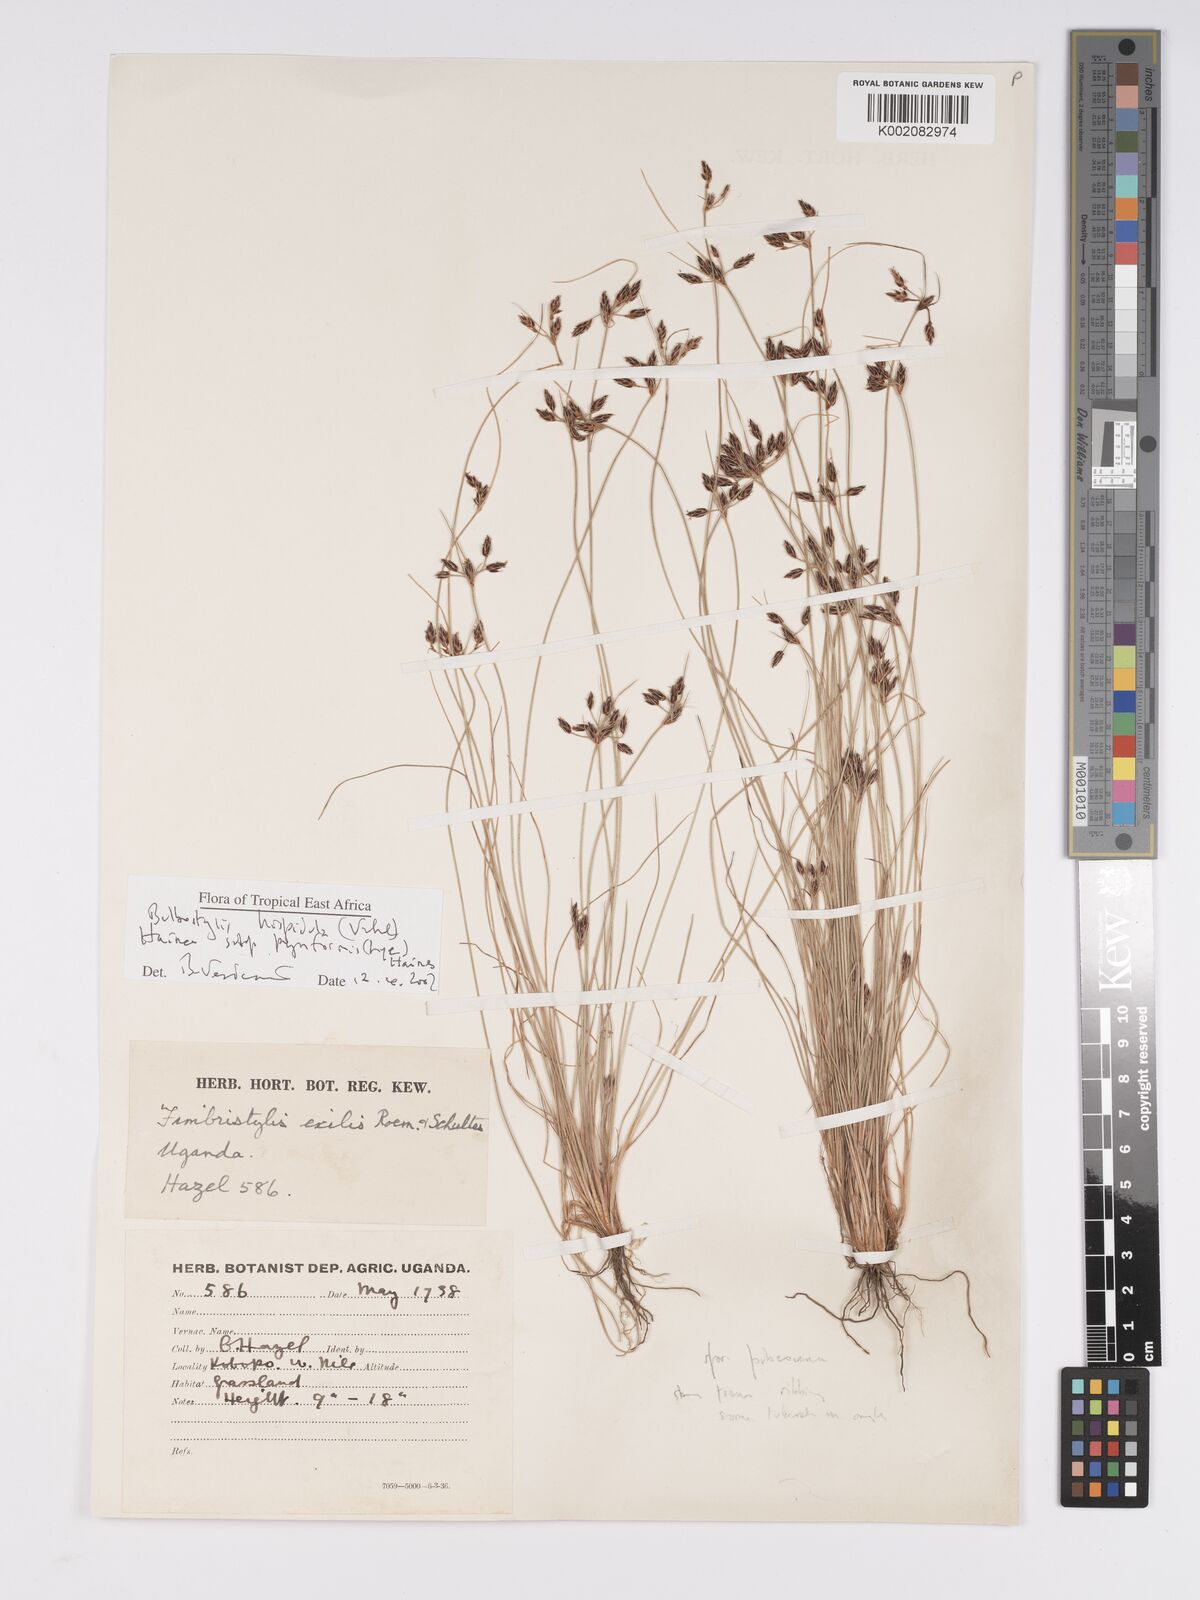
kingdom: Plantae
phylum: Tracheophyta
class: Liliopsida
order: Poales
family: Cyperaceae
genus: Bulbostylis
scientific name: Bulbostylis hispidula
